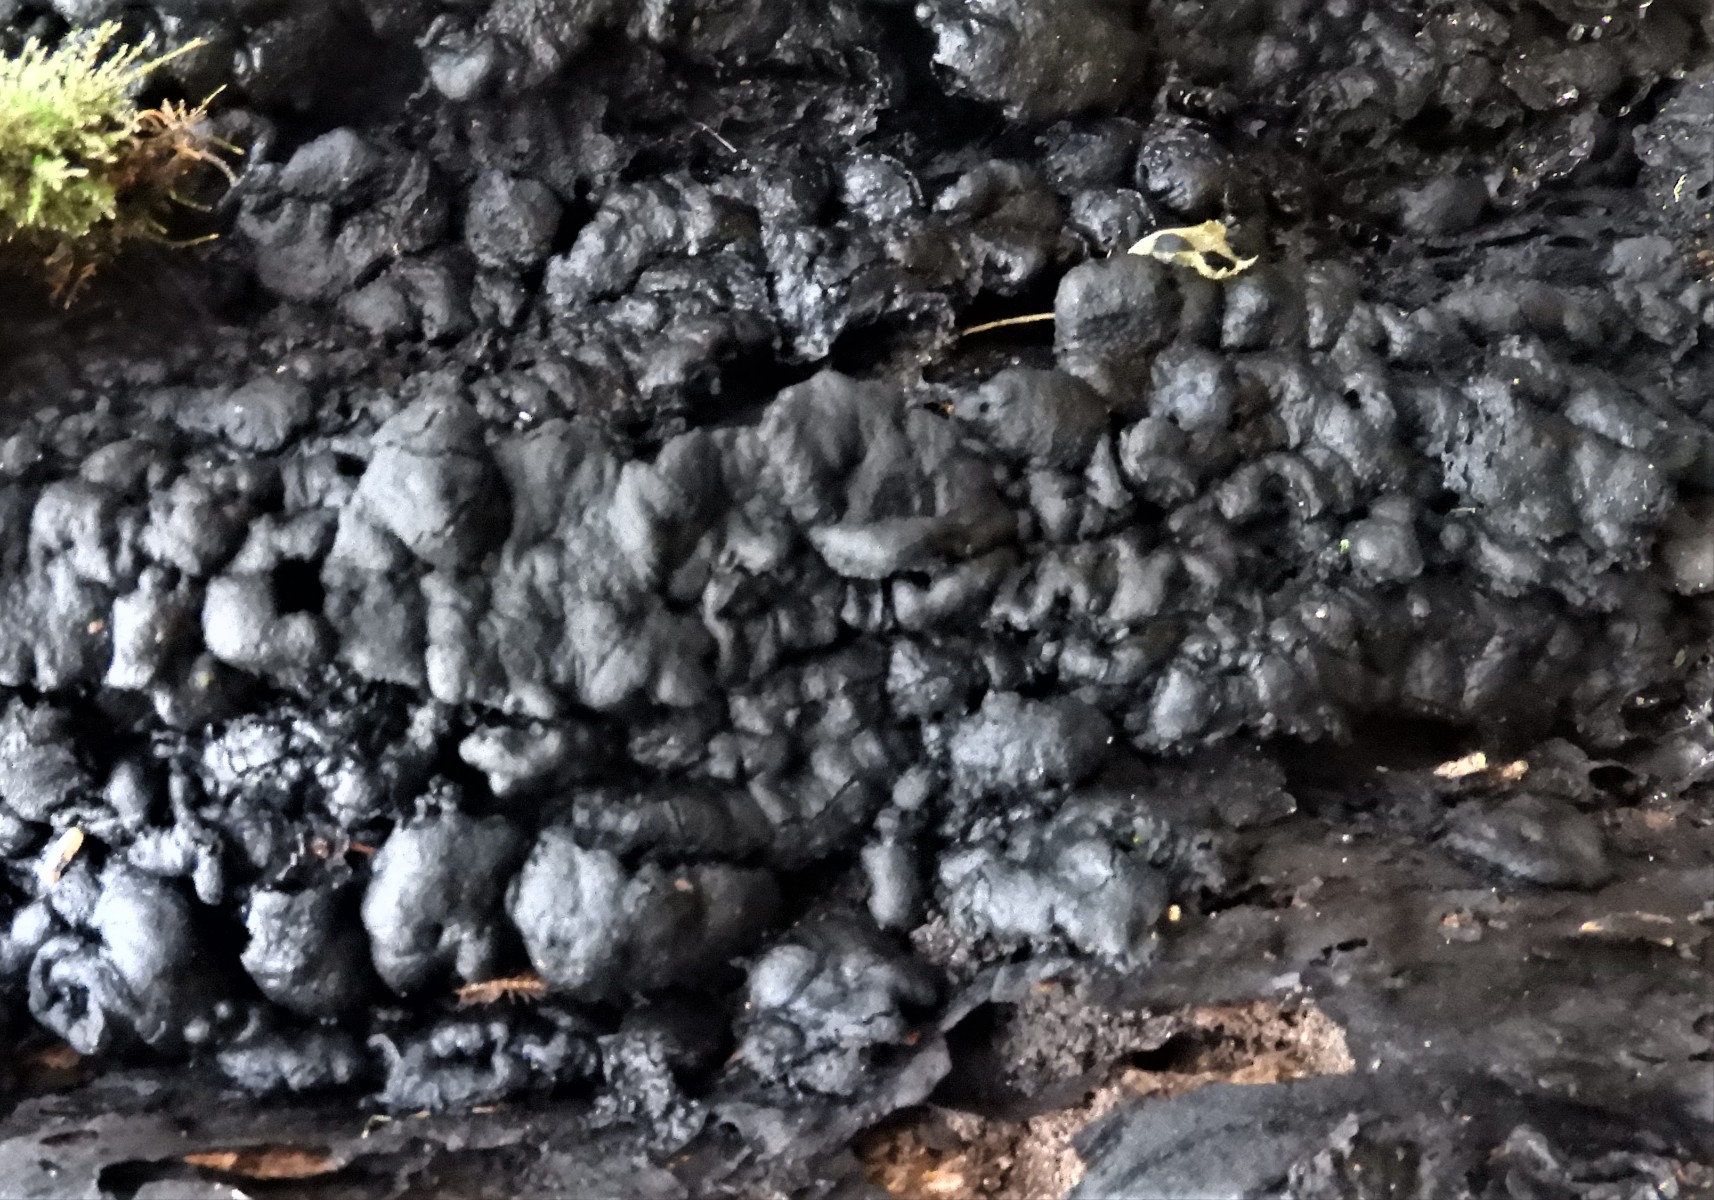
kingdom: Fungi
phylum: Ascomycota
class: Sordariomycetes
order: Xylariales
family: Xylariaceae
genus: Kretzschmaria
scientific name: Kretzschmaria deusta
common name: stor kulsvamp
